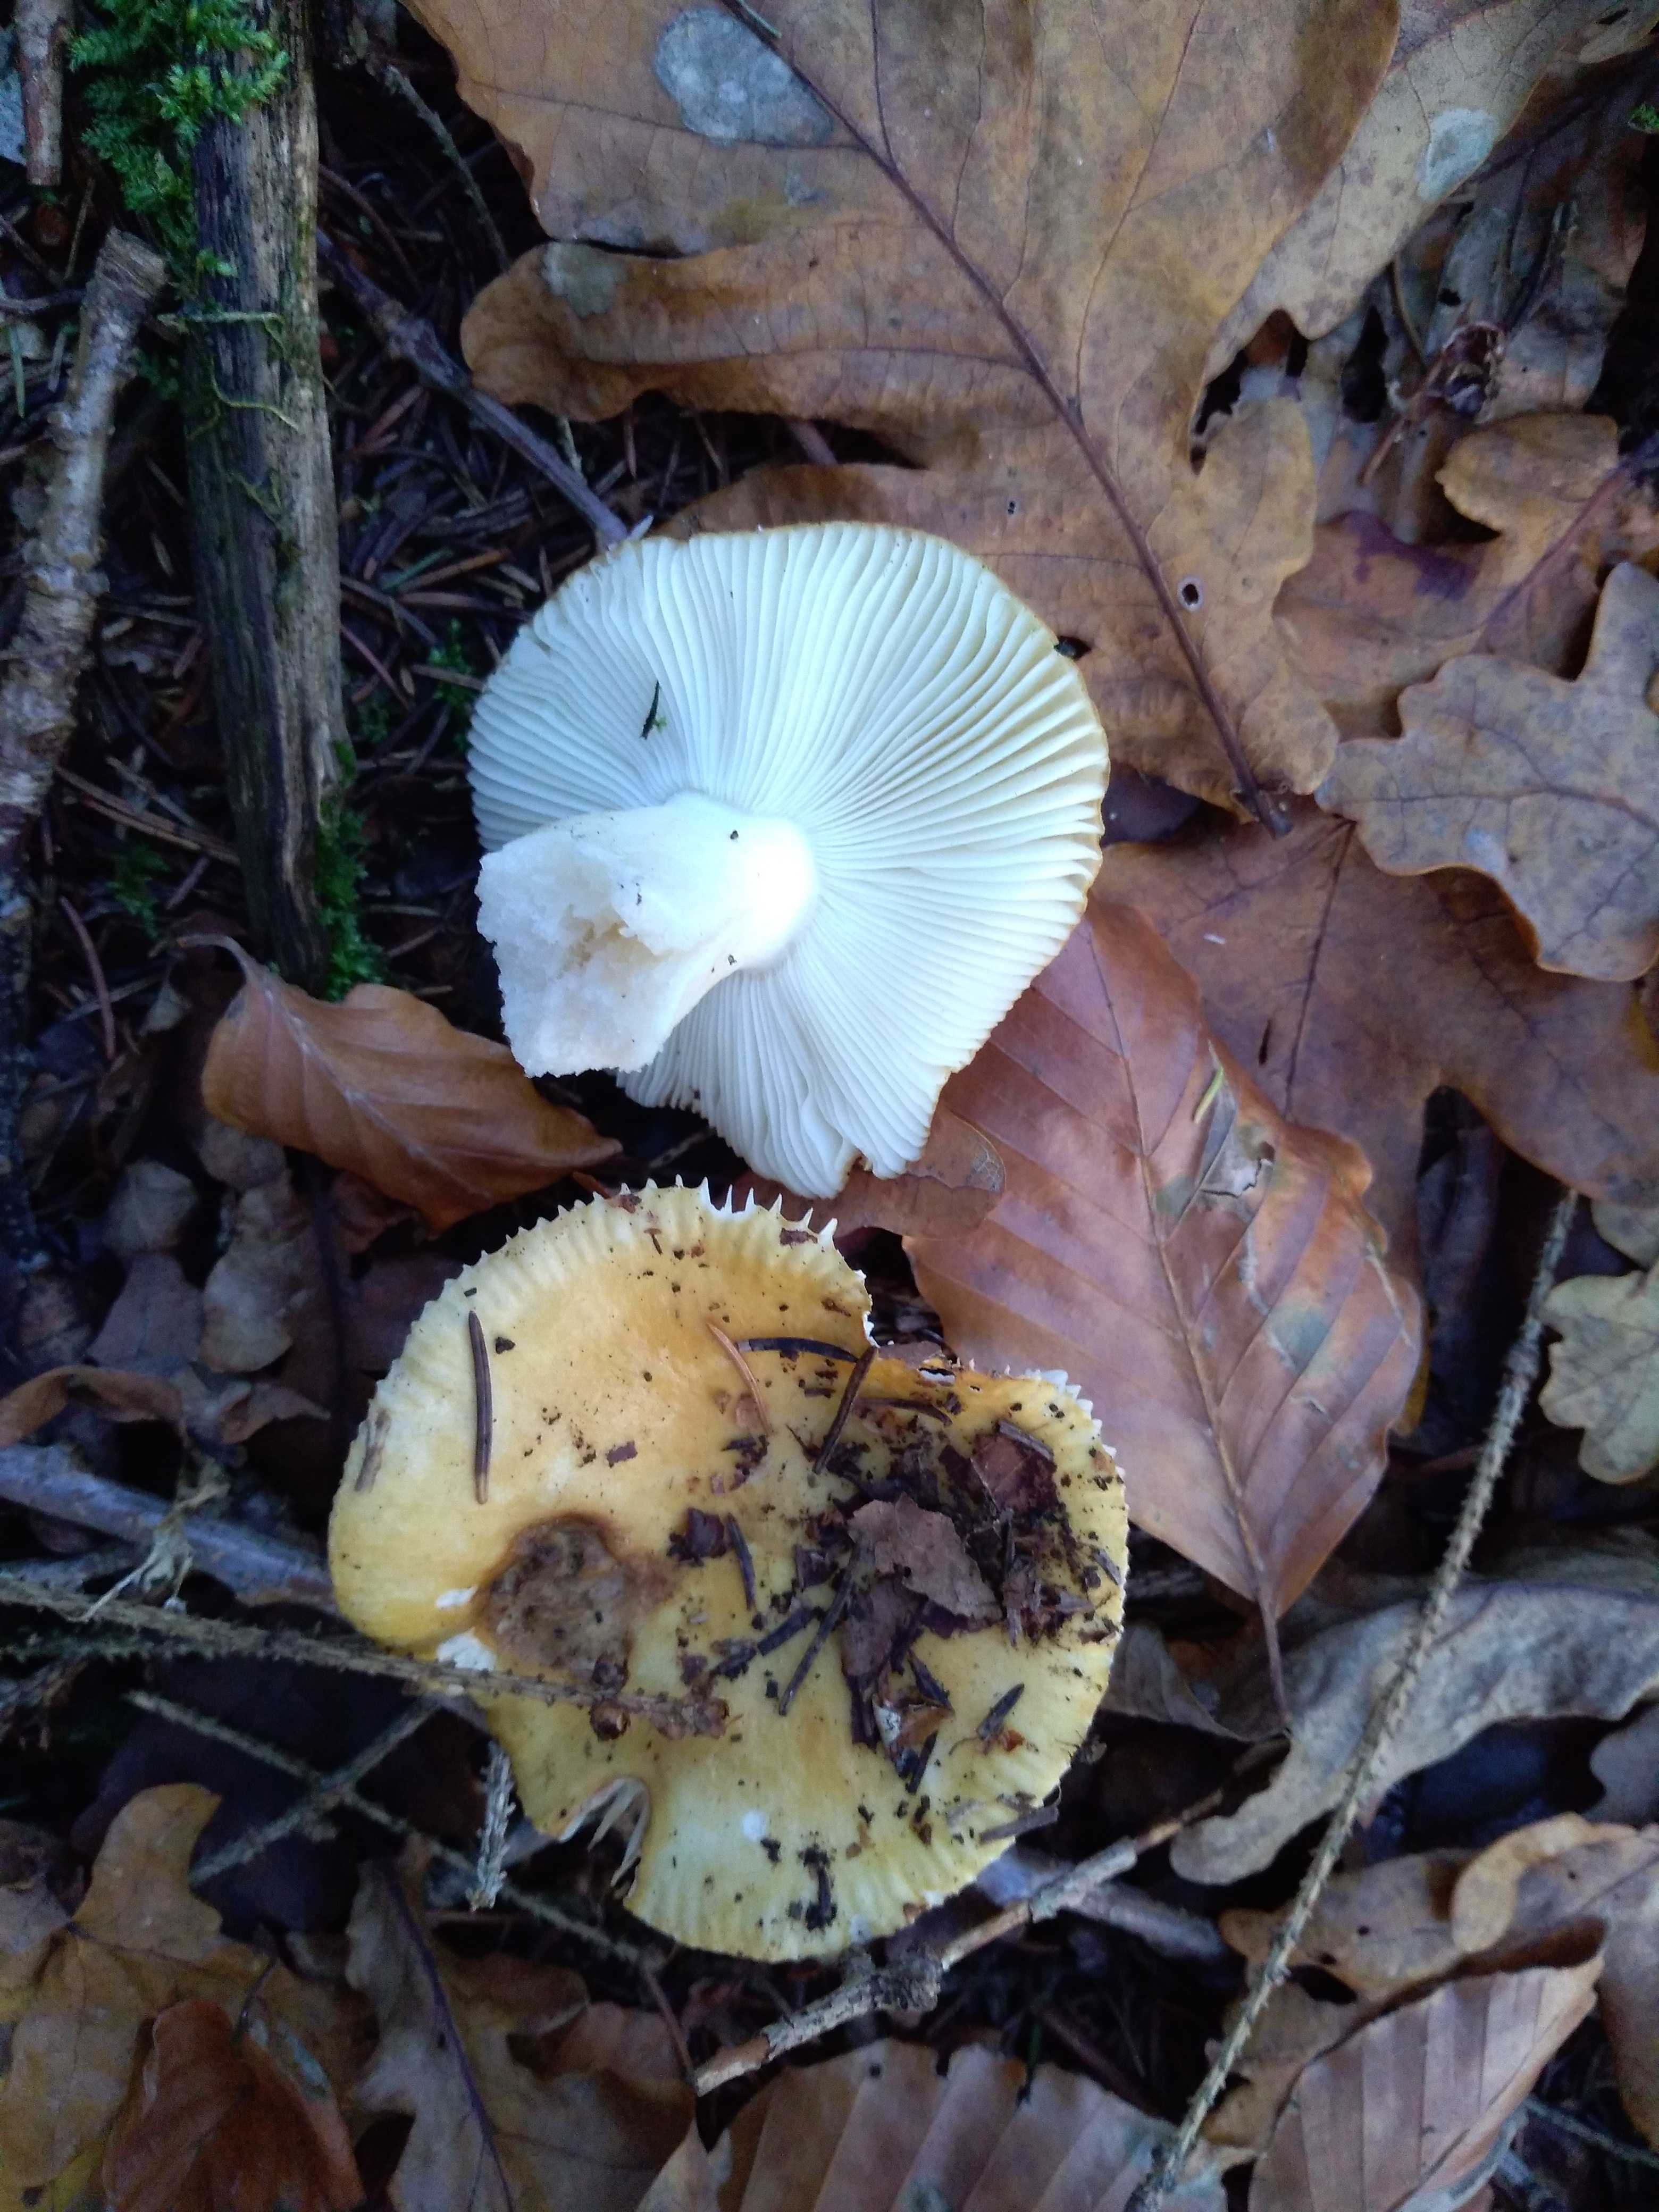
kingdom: Fungi
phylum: Basidiomycota
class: Agaricomycetes
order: Russulales
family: Russulaceae
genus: Russula
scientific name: Russula ochroleuca
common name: okkergul skørhat
